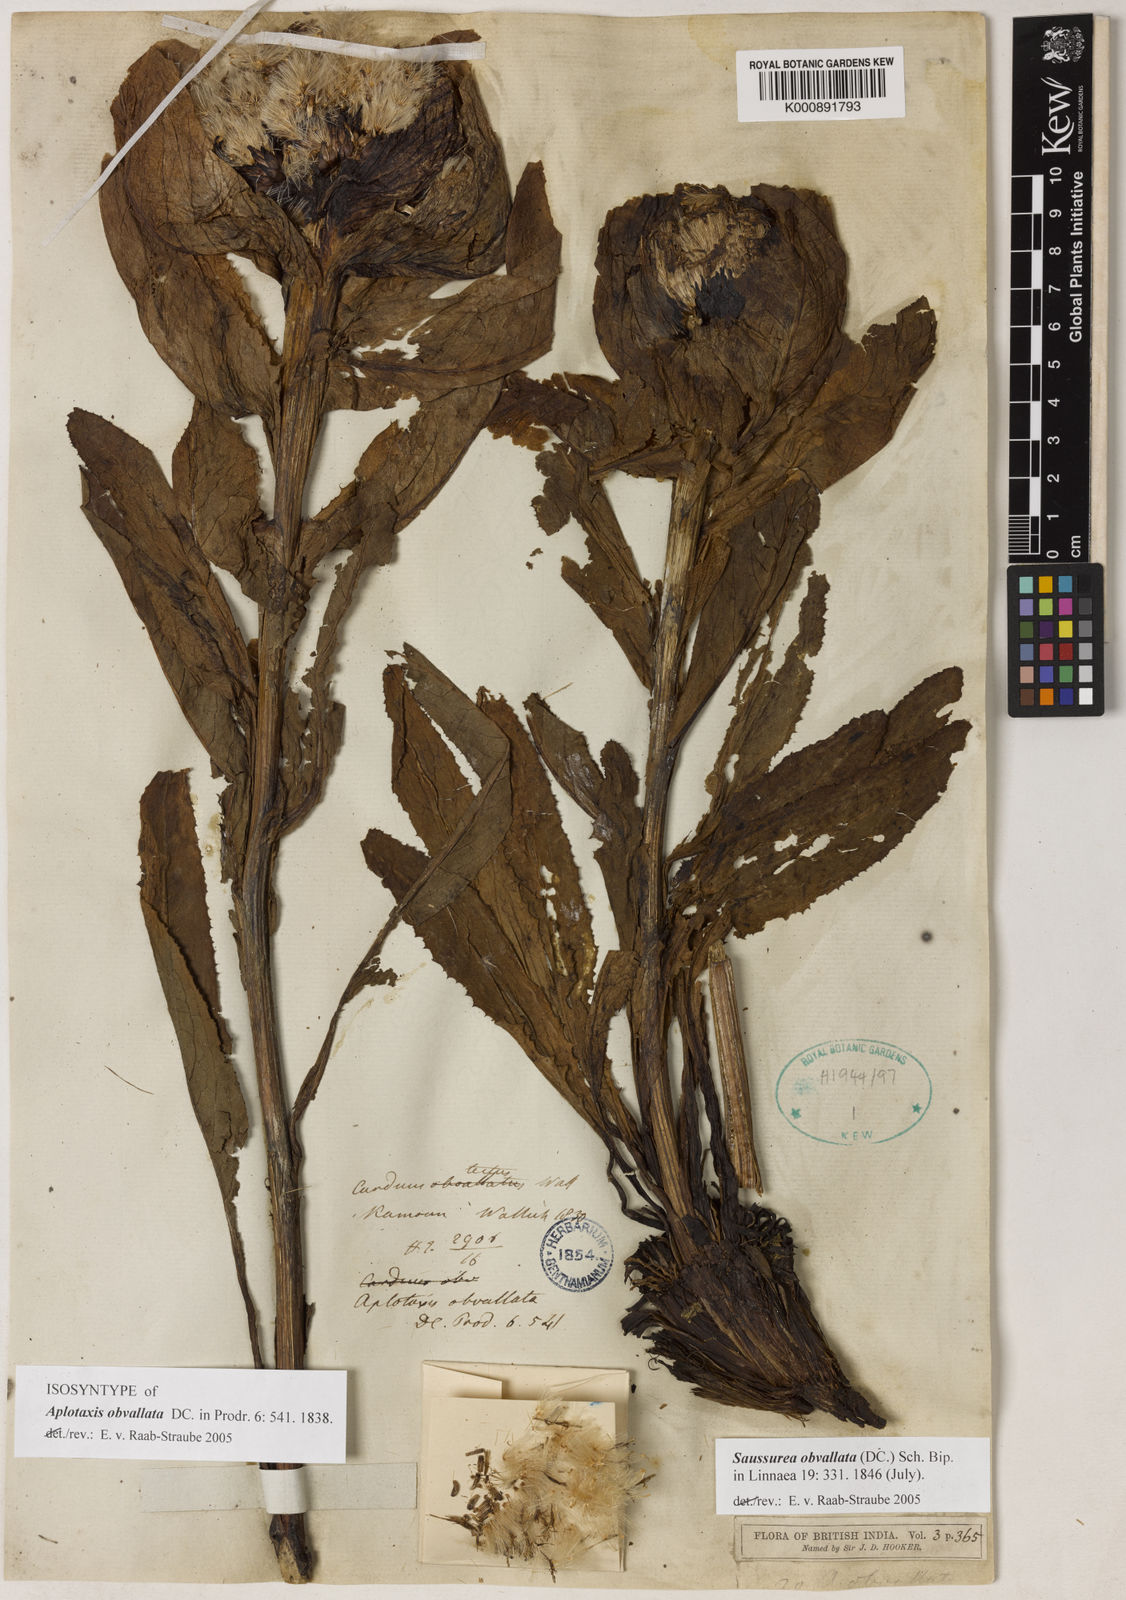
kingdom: Plantae
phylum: Tracheophyta
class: Magnoliopsida
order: Asterales
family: Asteraceae
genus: Saussurea
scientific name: Saussurea obvallata
